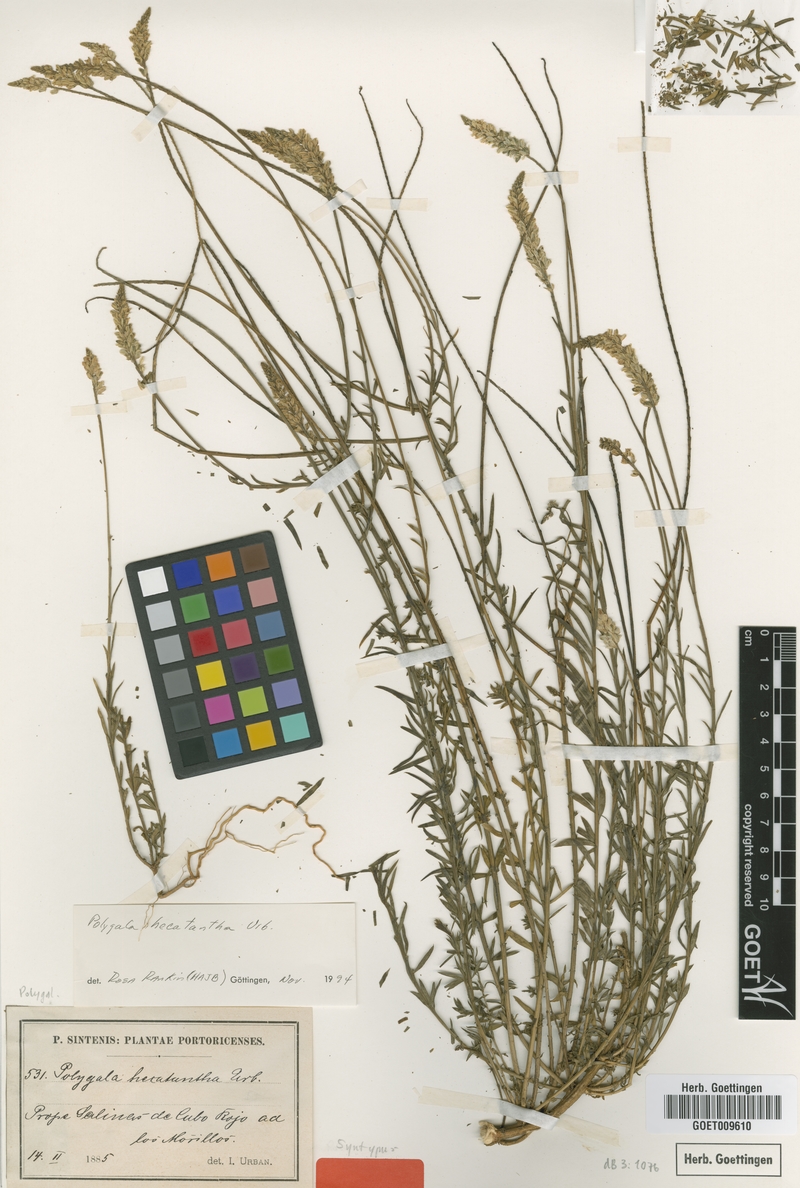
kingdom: Plantae
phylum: Tracheophyta
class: Magnoliopsida
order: Fabales
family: Polygalaceae
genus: Polygala
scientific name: Polygala hecatantha
